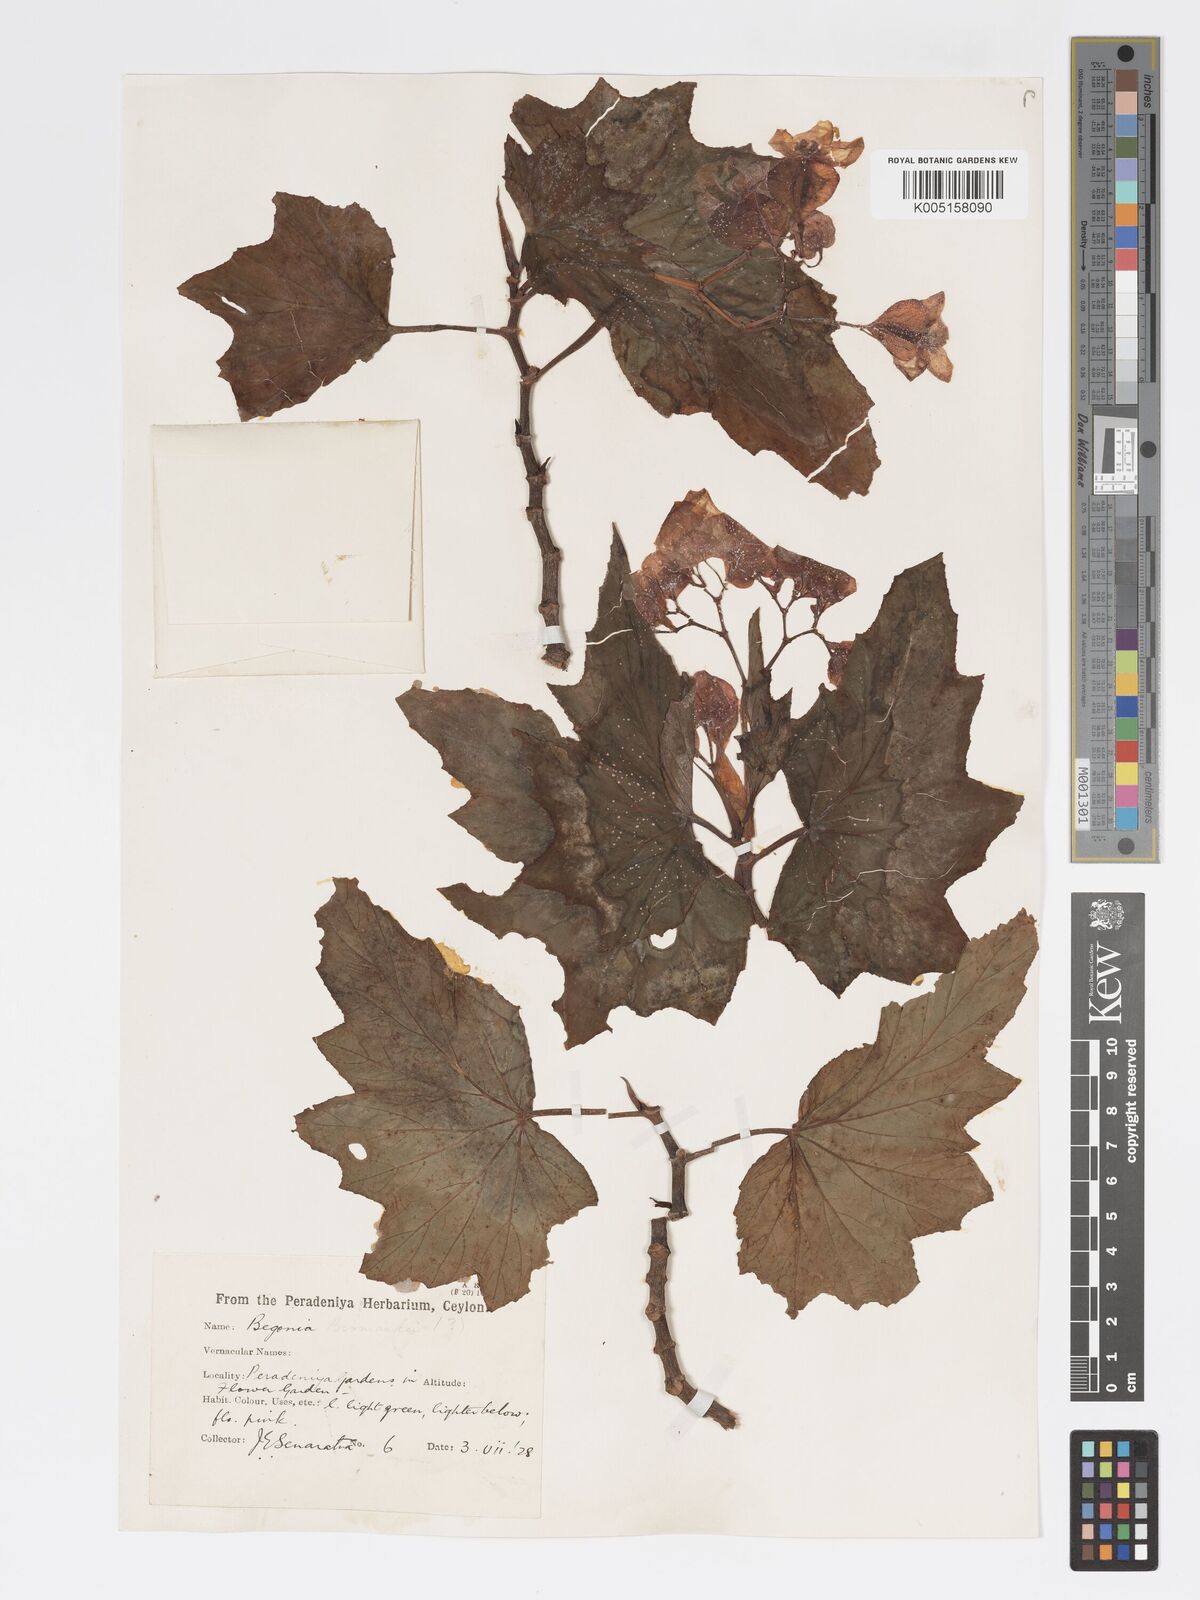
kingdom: Plantae
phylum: Tracheophyta
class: Magnoliopsida
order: Cucurbitales
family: Begoniaceae
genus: Begonia
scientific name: Begonia
